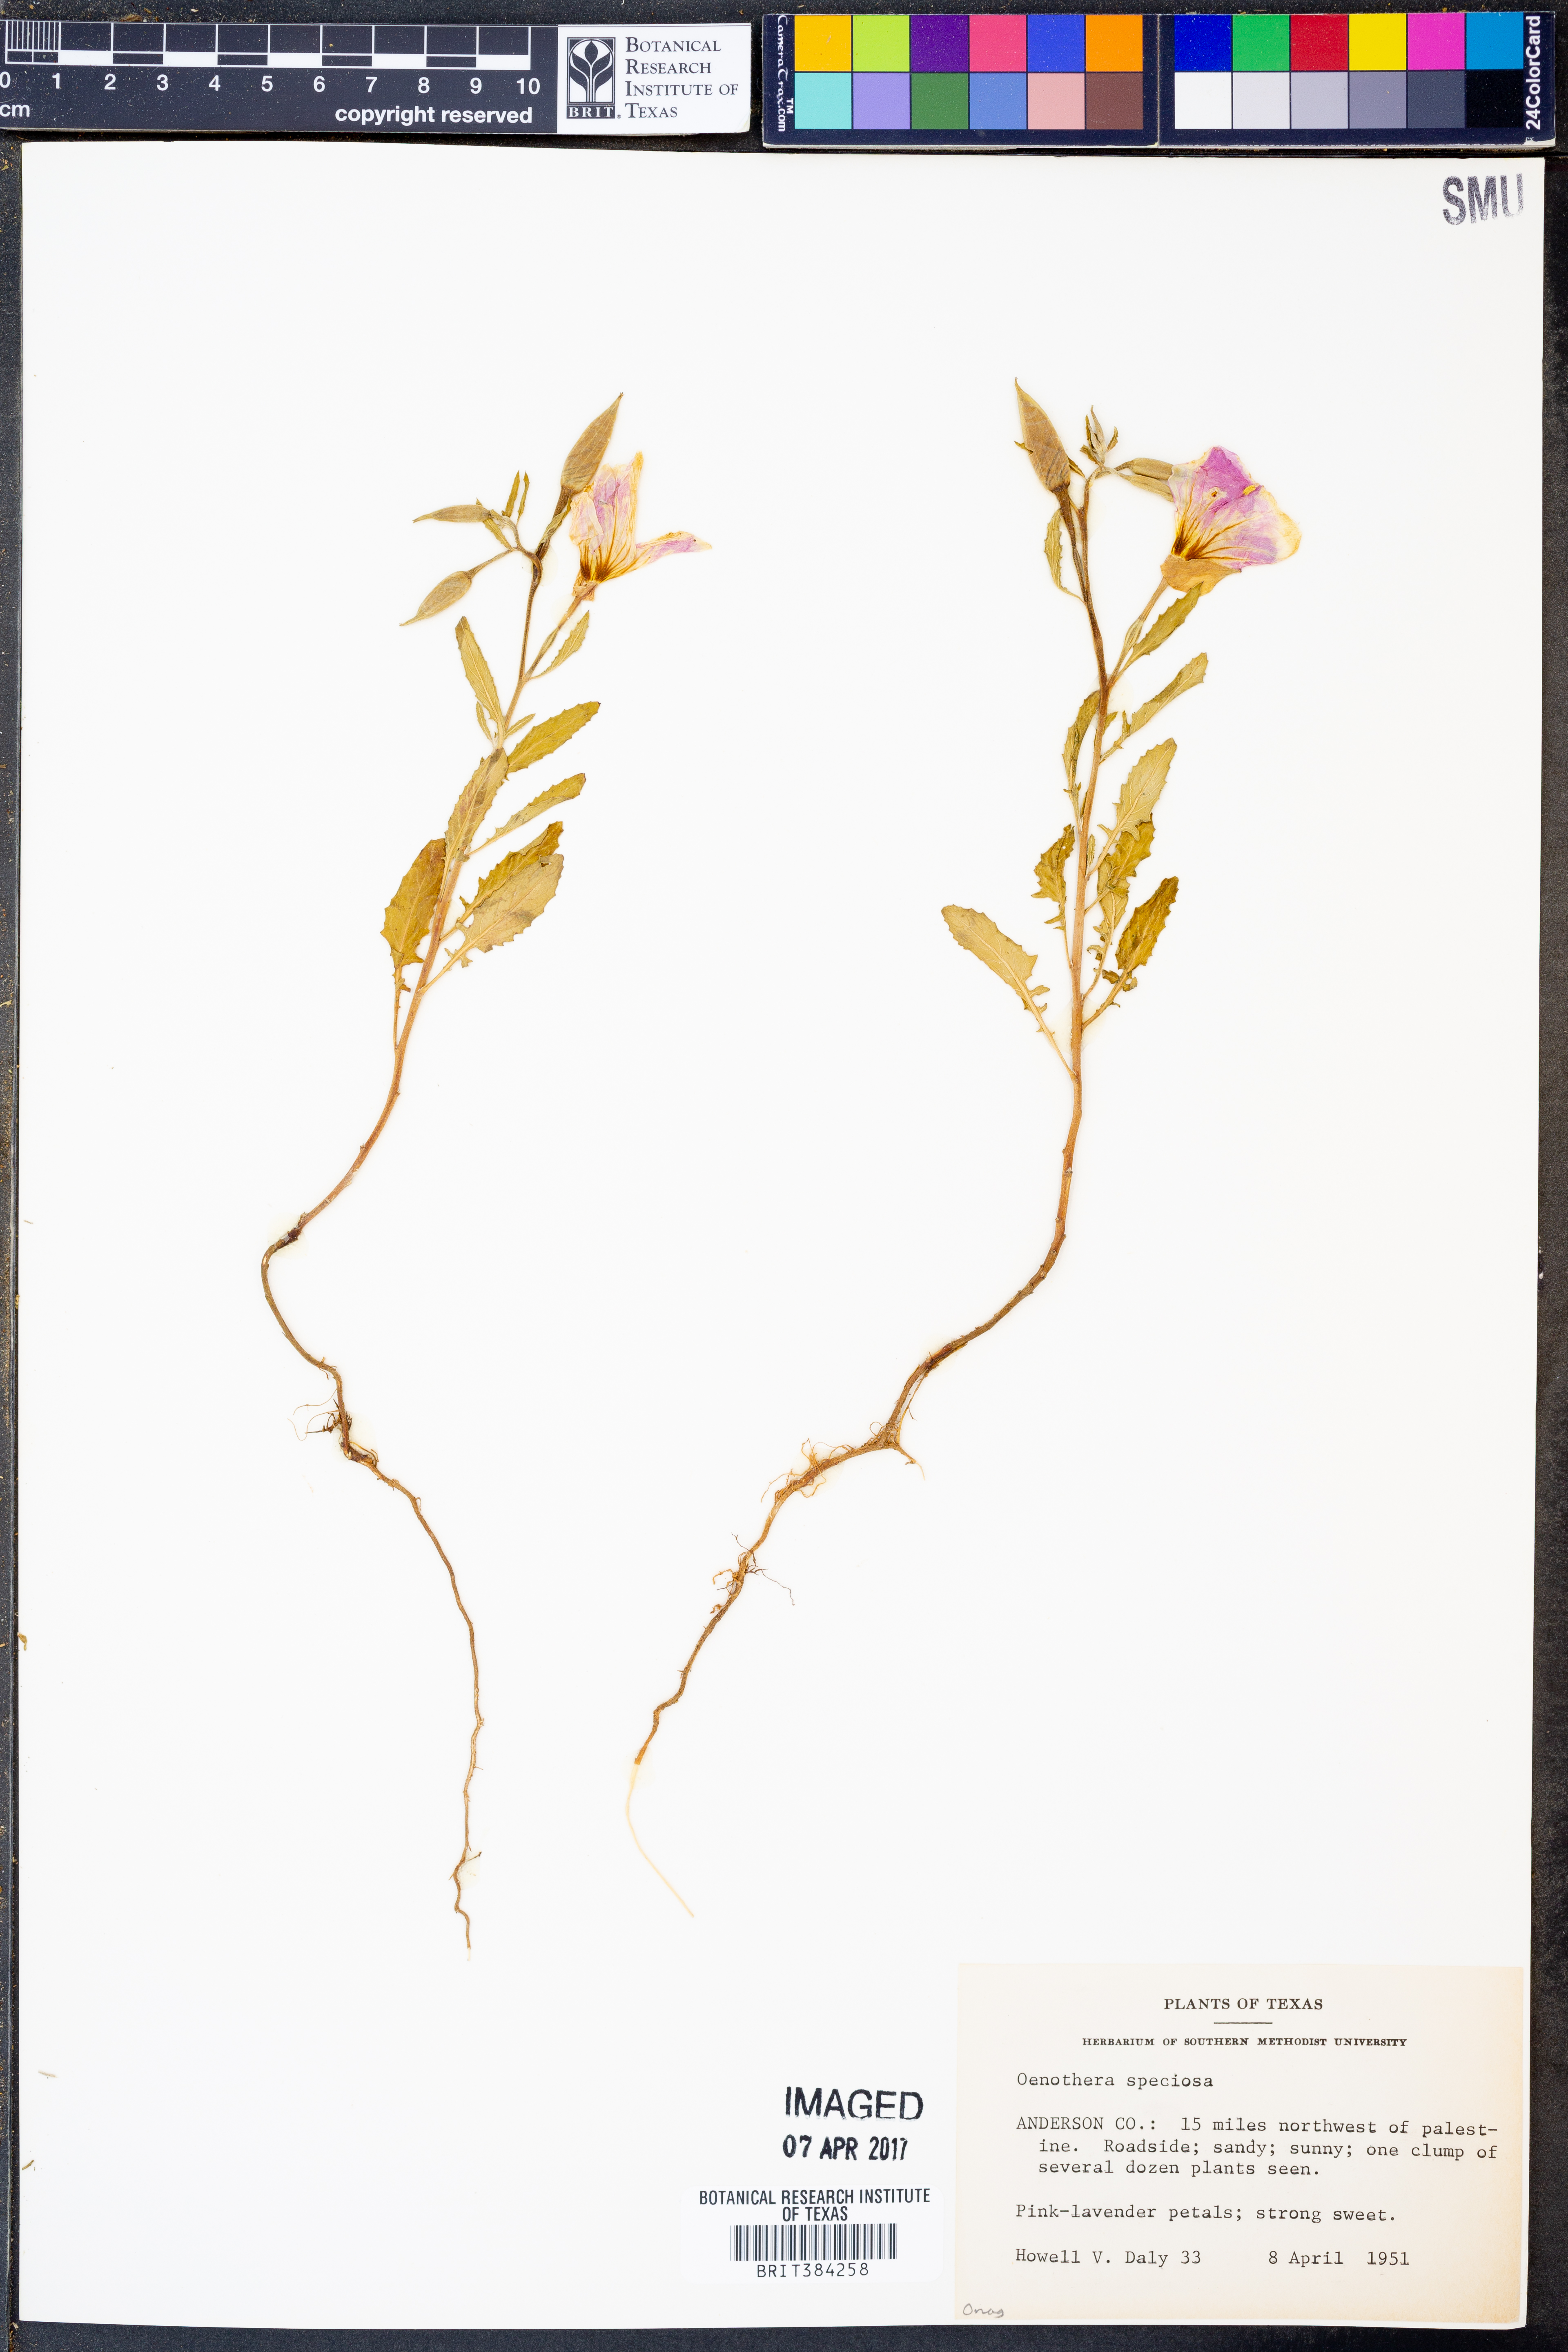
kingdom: Plantae
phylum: Tracheophyta
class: Magnoliopsida
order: Myrtales
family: Onagraceae
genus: Oenothera
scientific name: Oenothera speciosa
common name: White evening-primrose
